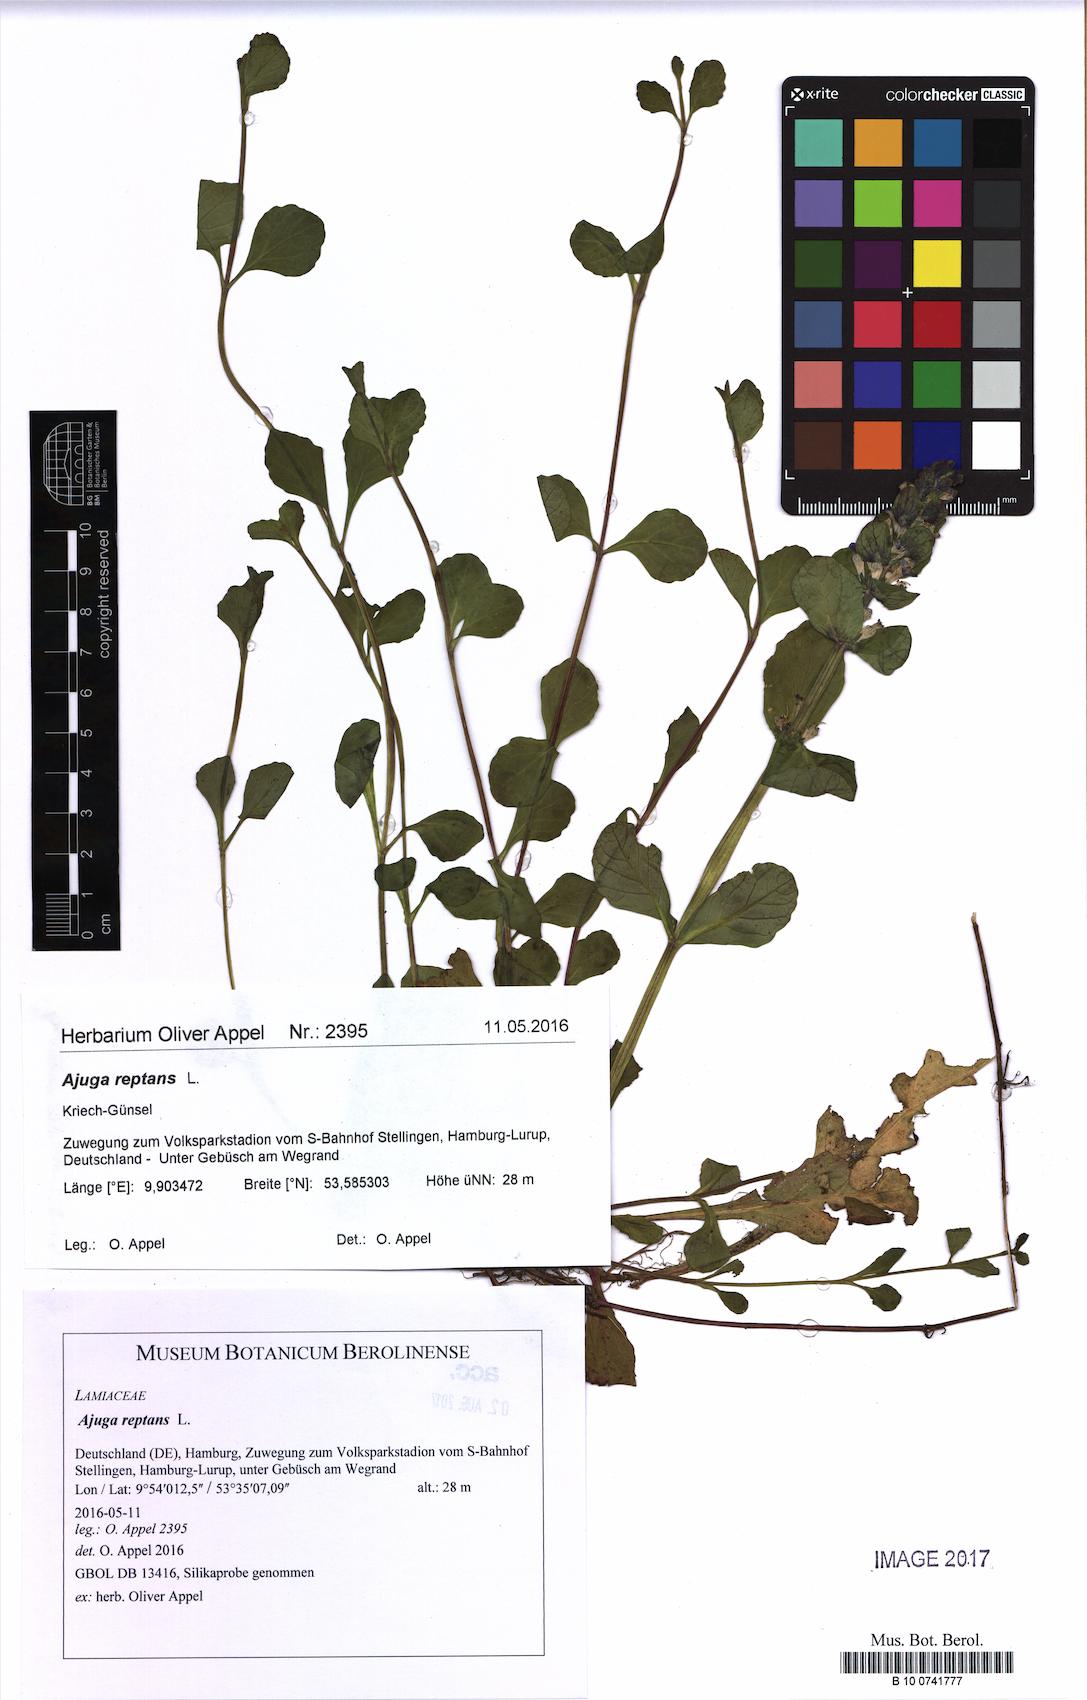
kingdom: Plantae
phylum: Tracheophyta
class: Magnoliopsida
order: Lamiales
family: Lamiaceae
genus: Ajuga
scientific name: Ajuga reptans
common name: Bugle
